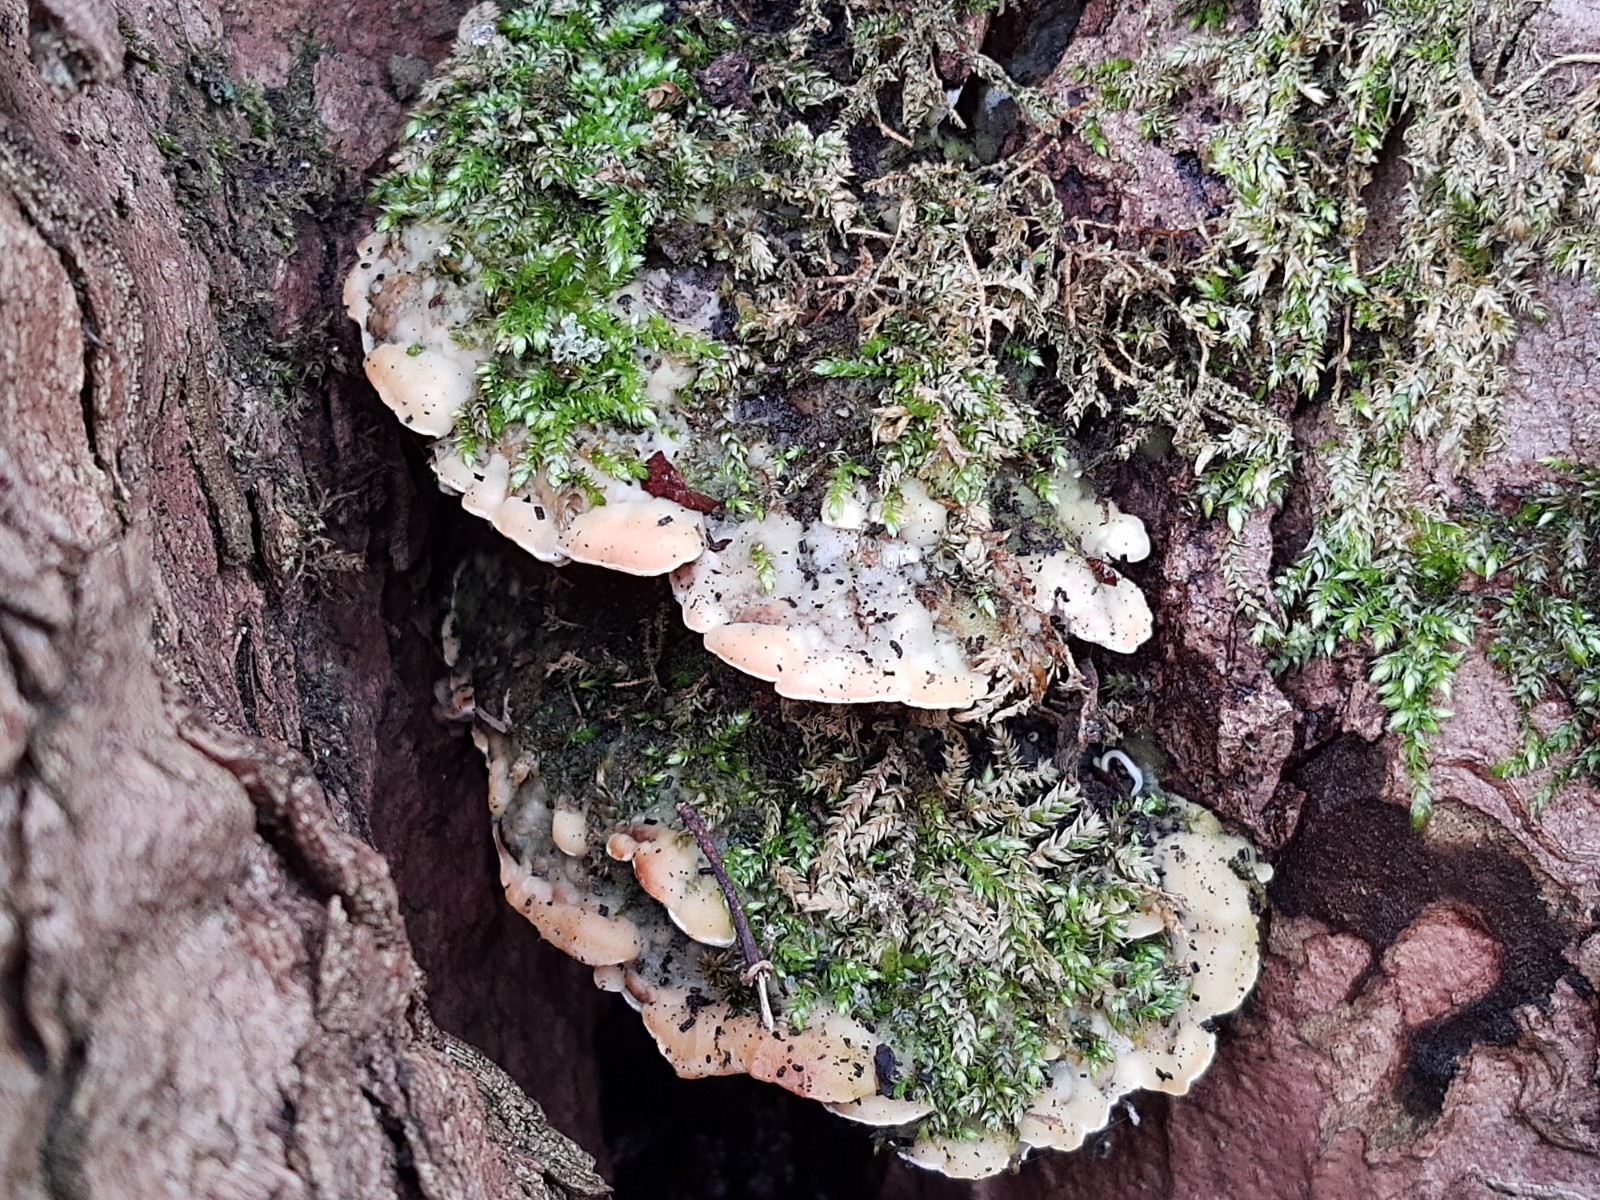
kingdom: Fungi
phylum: Basidiomycota
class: Agaricomycetes
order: Hymenochaetales
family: Oxyporaceae
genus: Oxyporus
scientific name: Oxyporus populinus
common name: sammenvokset trylleporesvamp
